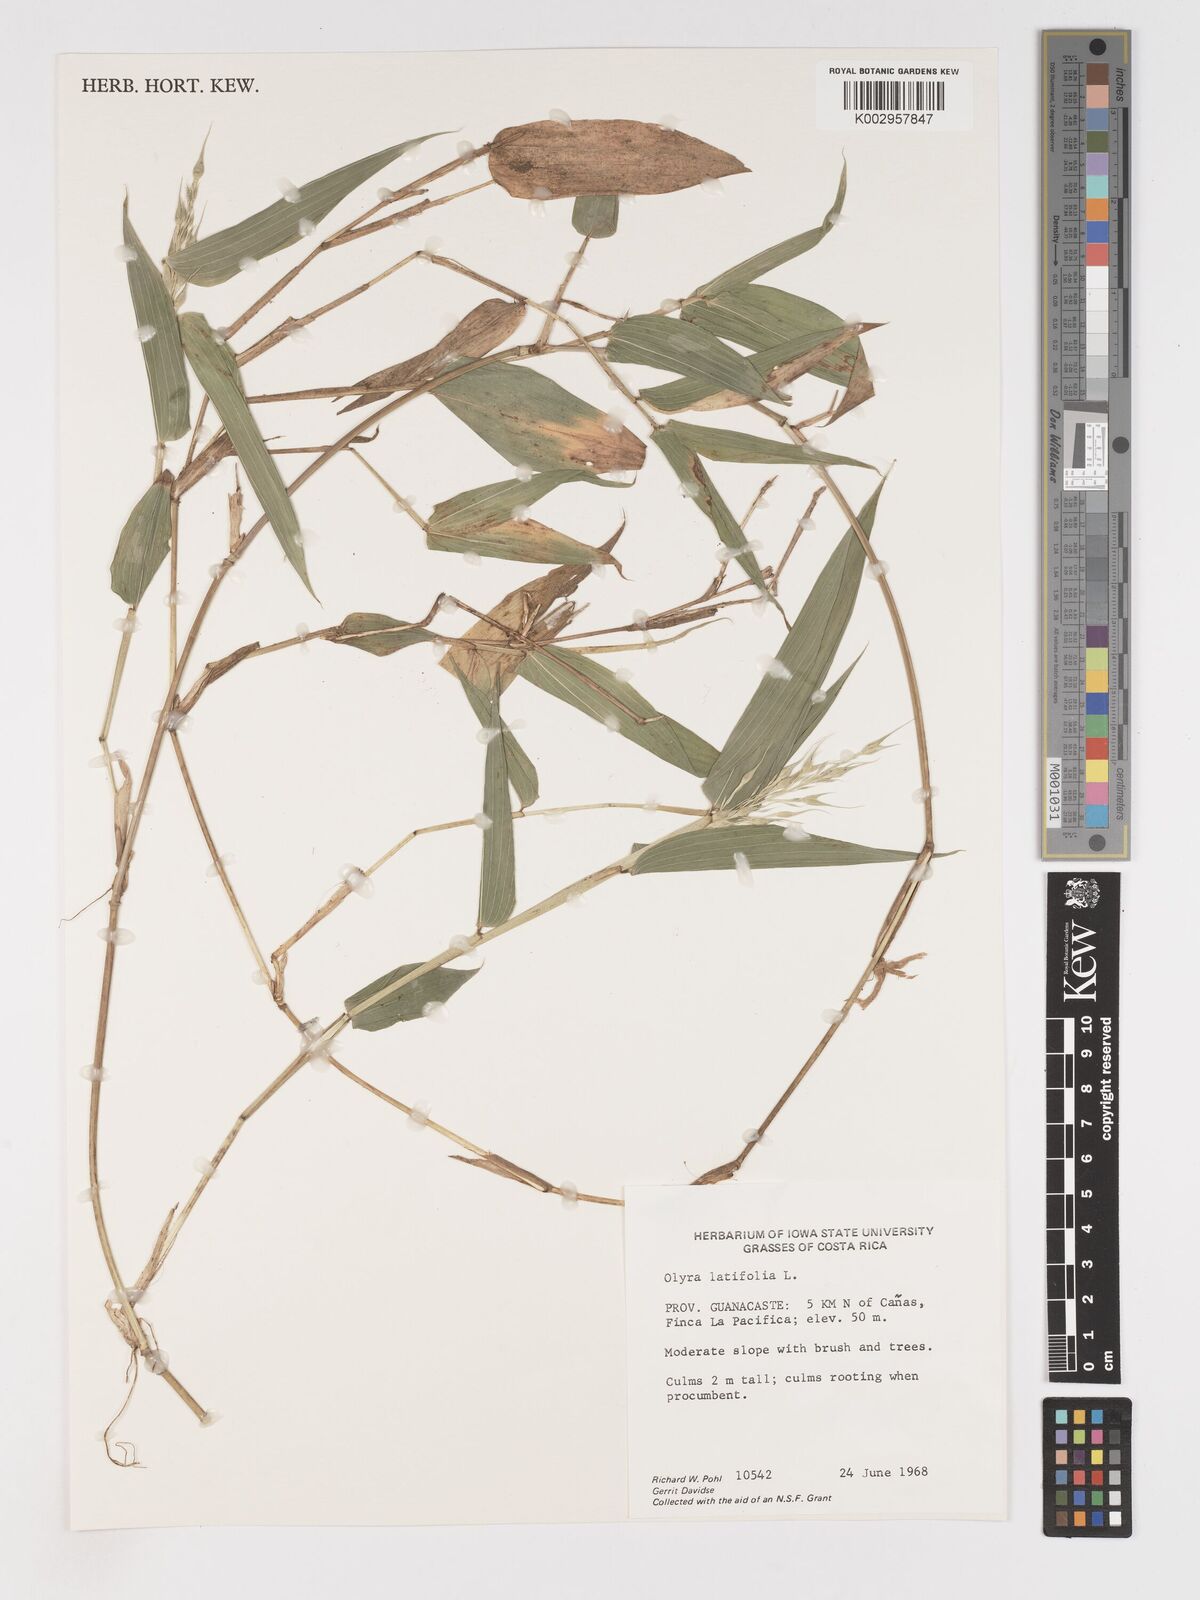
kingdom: Plantae
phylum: Tracheophyta
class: Liliopsida
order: Poales
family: Poaceae
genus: Olyra
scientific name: Olyra latifolia
